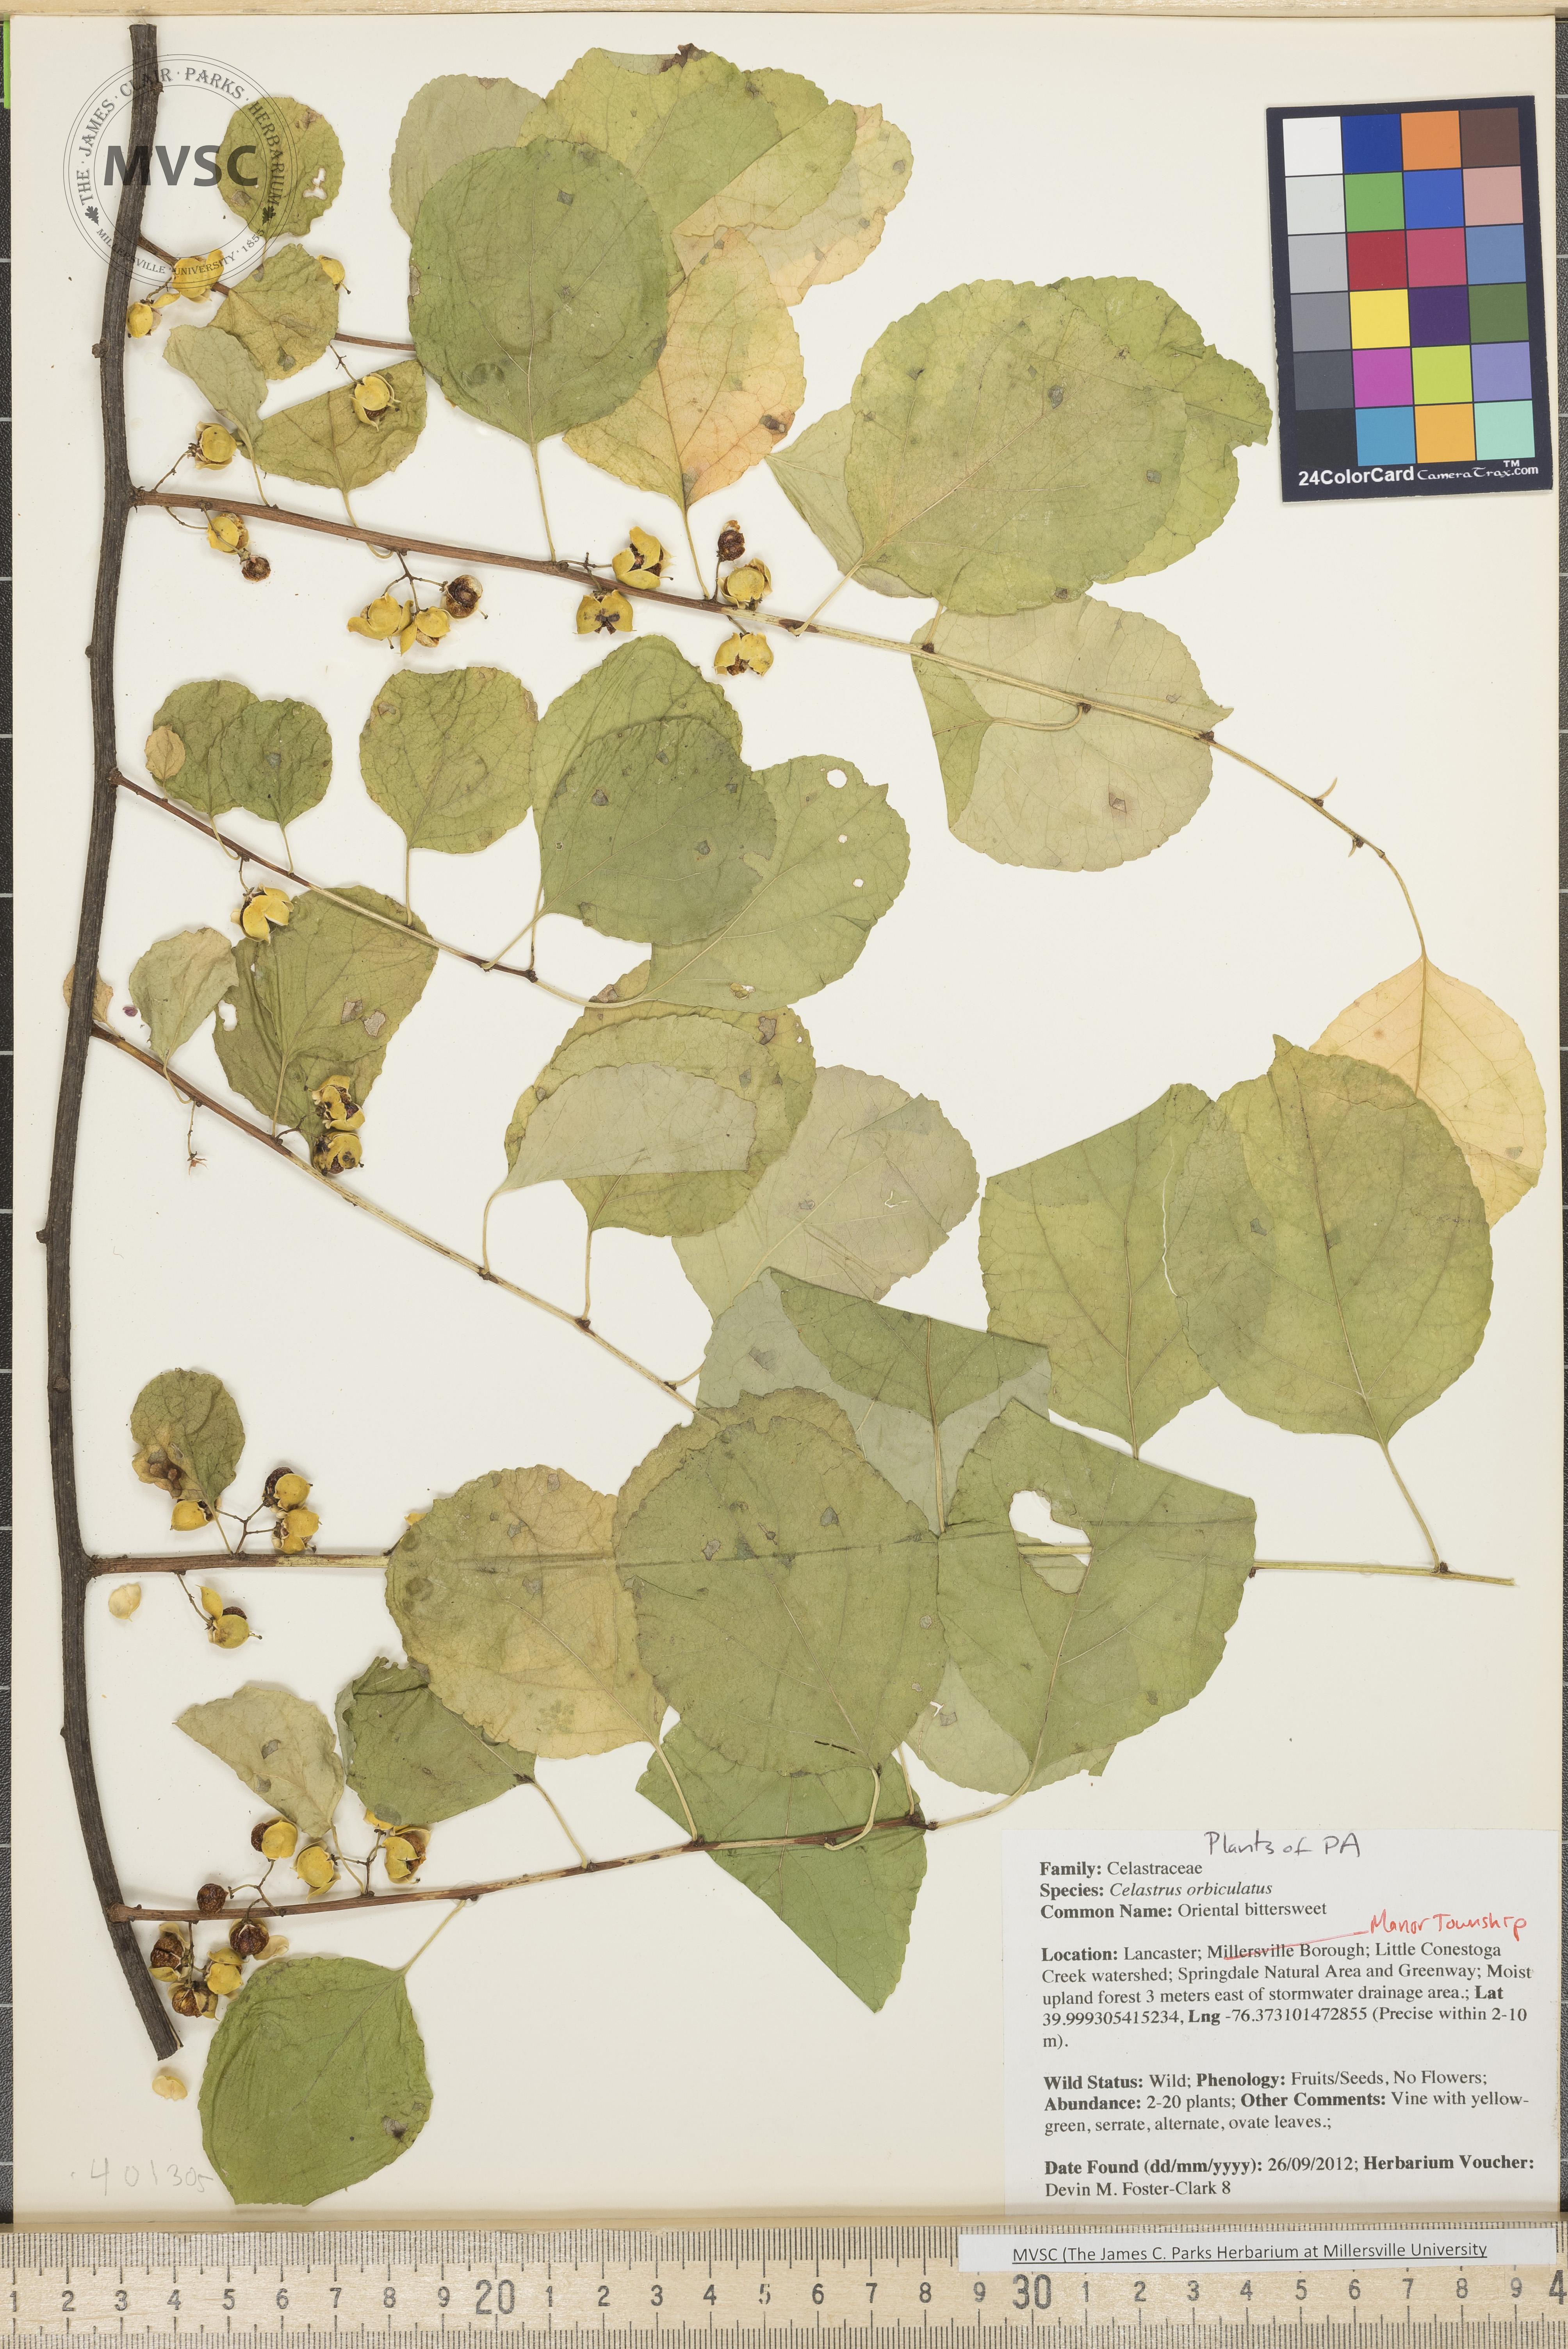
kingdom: Plantae
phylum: Tracheophyta
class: Magnoliopsida
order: Celastrales
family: Celastraceae
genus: Celastrus
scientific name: Celastrus orbiculatus
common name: Oriental bittersweet
